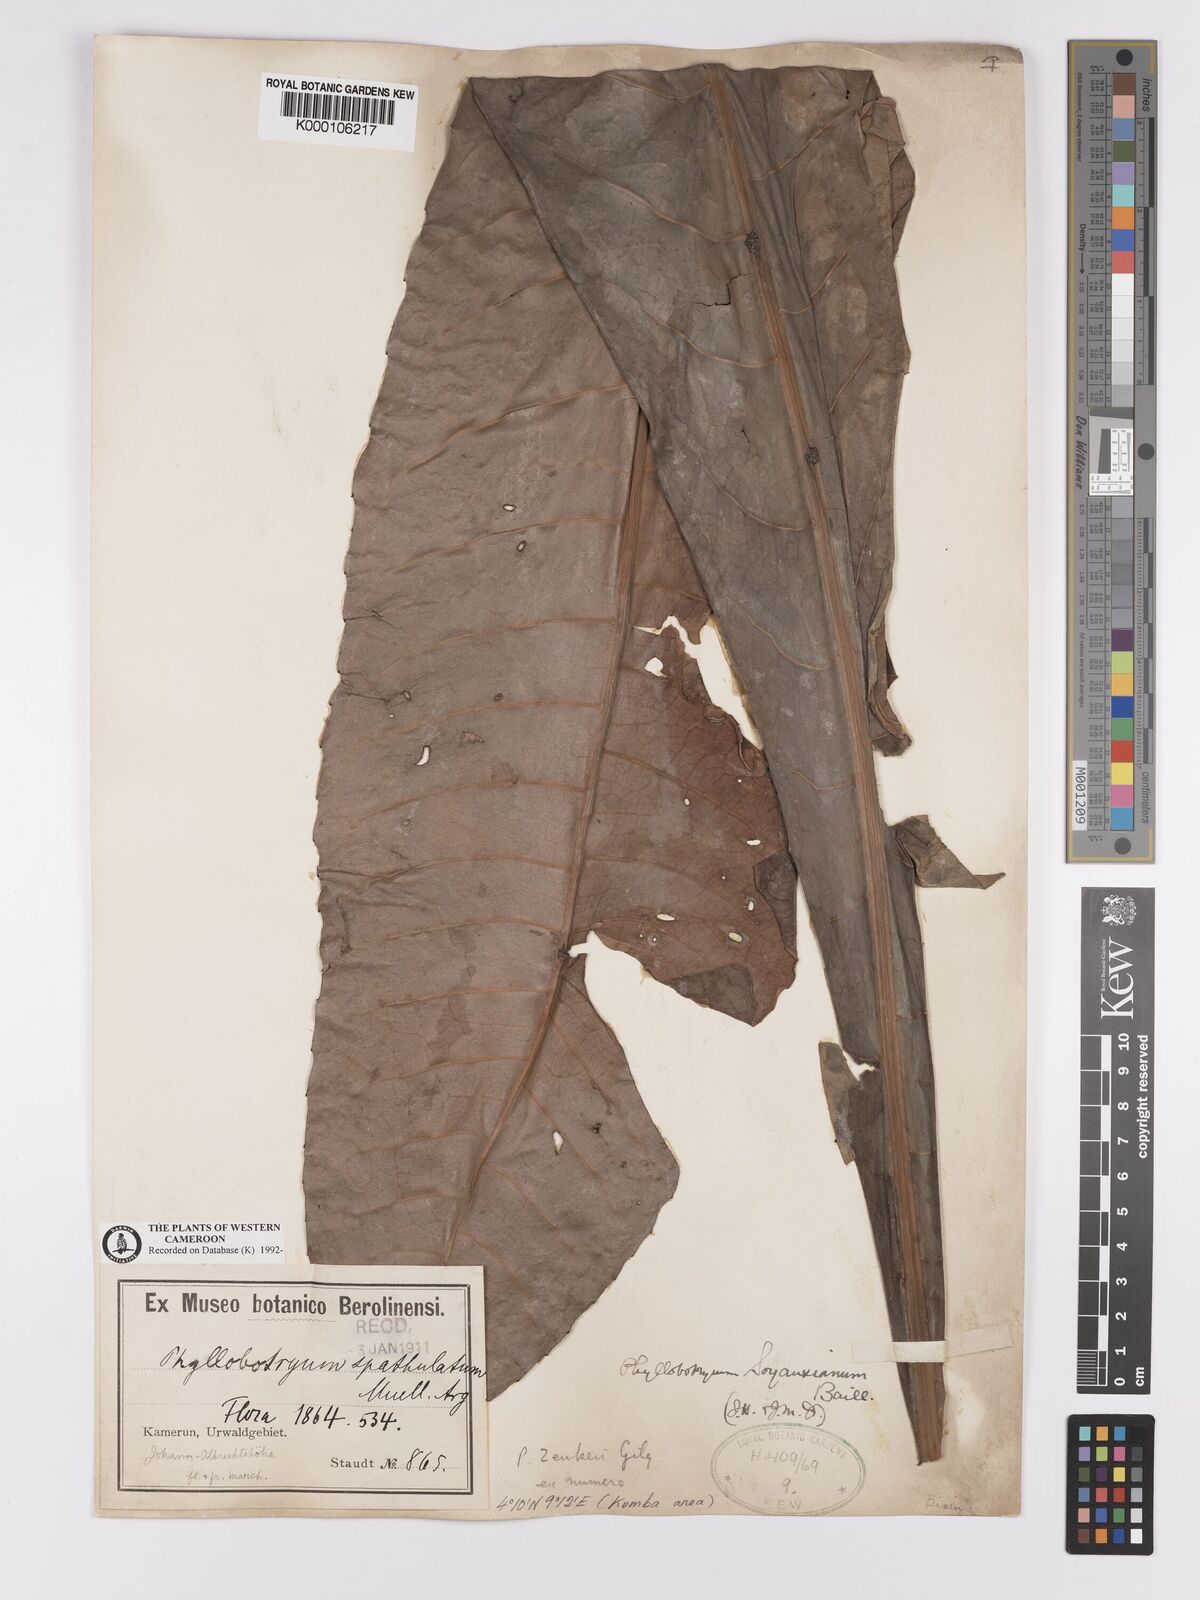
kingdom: Plantae
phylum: Tracheophyta
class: Magnoliopsida
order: Malpighiales
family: Salicaceae
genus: Phyllobotryon
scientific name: Phyllobotryon
